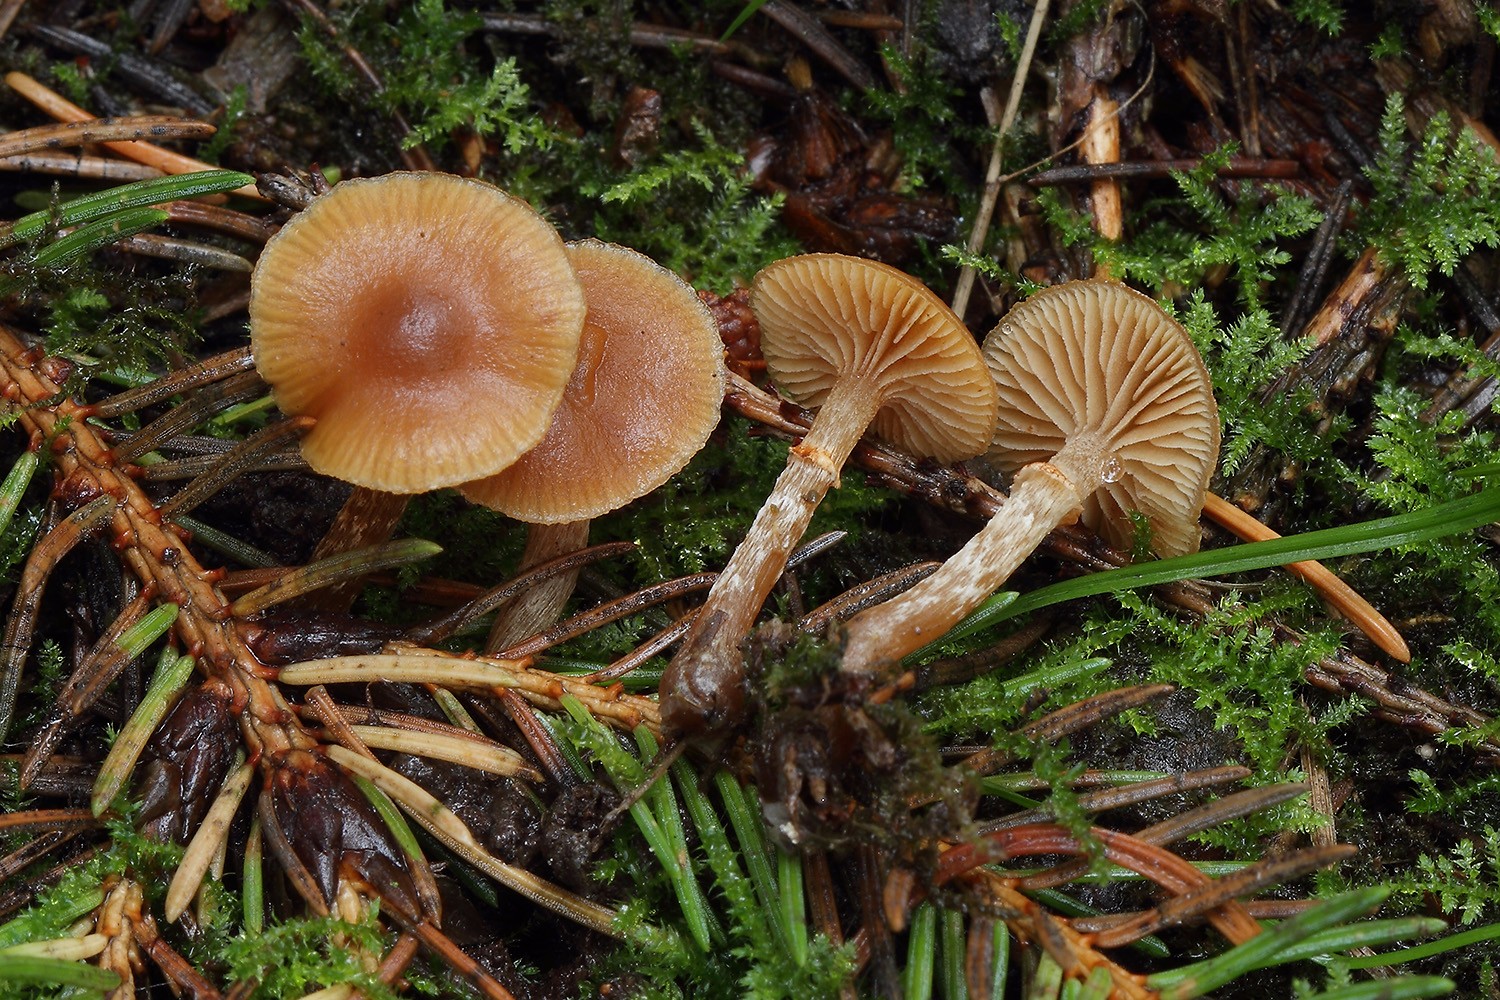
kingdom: Fungi
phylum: Basidiomycota
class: Agaricomycetes
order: Agaricales
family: Hymenogastraceae
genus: Galerina
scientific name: Galerina marginata
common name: randbæltet hjelmhat
